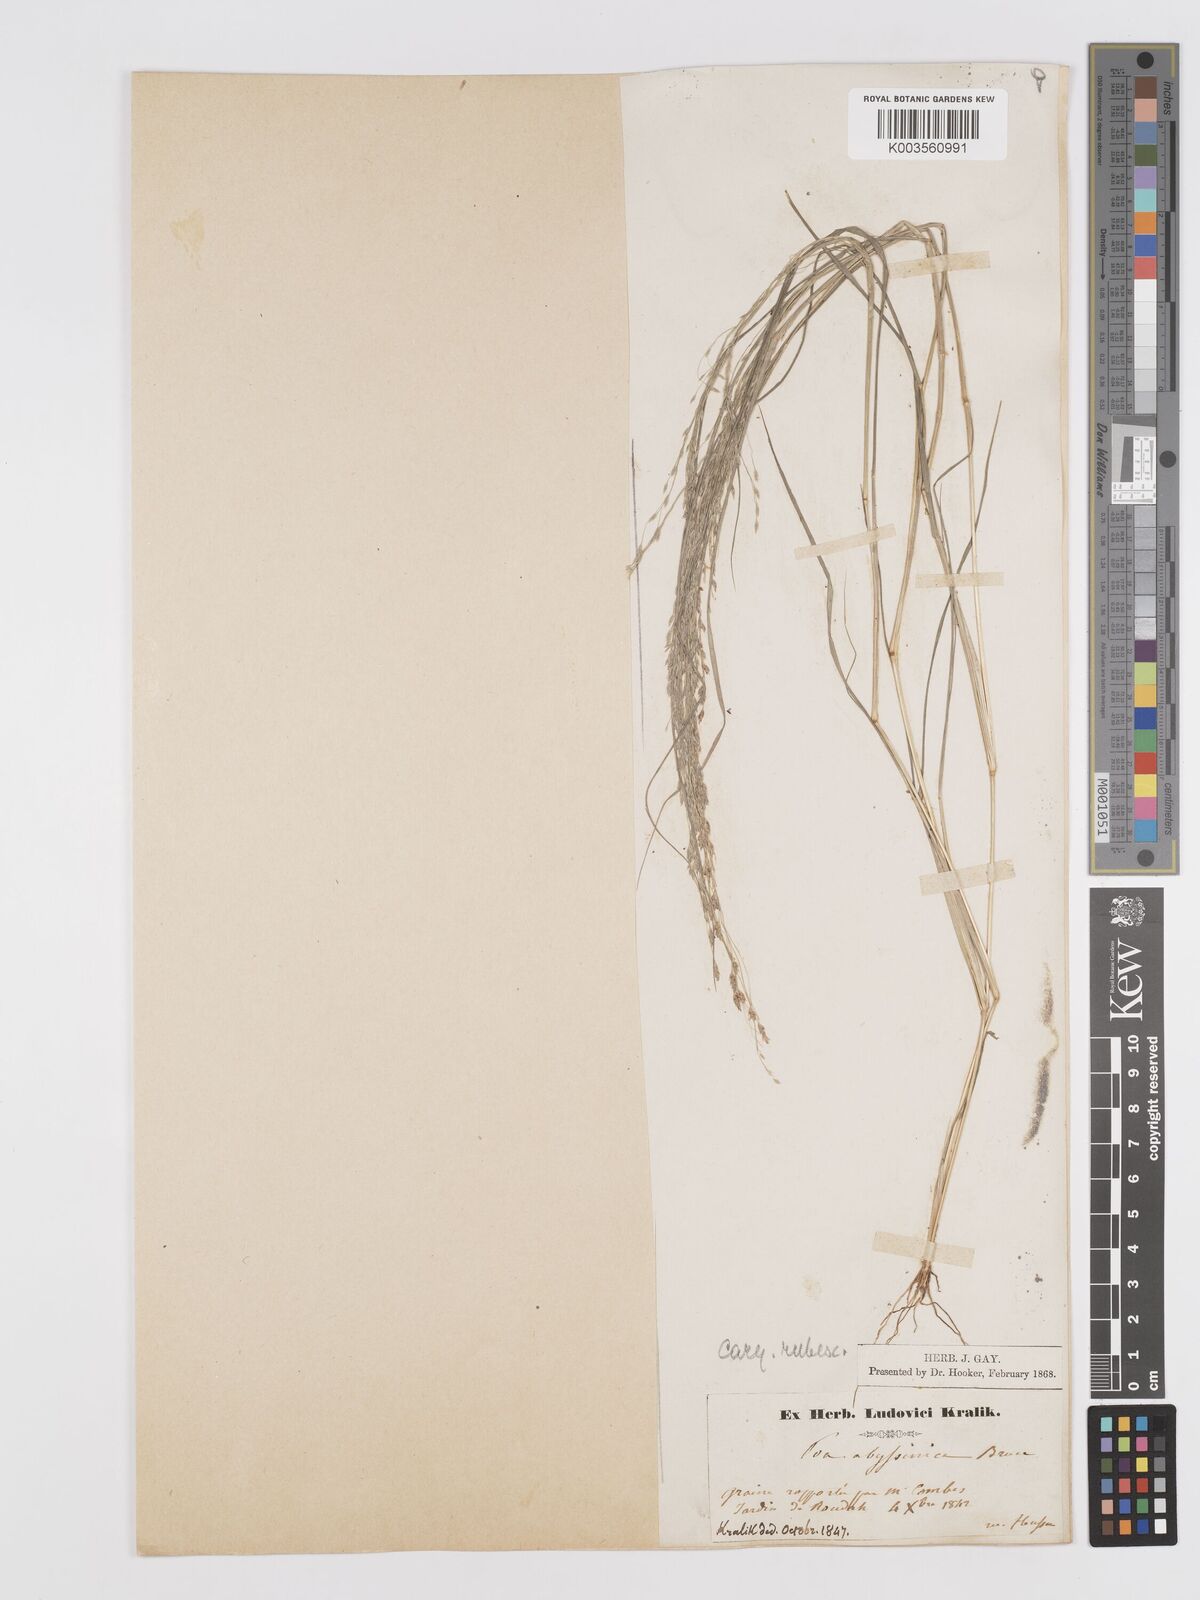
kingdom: Plantae
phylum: Tracheophyta
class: Liliopsida
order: Poales
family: Poaceae
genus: Eragrostis
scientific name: Eragrostis tef
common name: Teff
